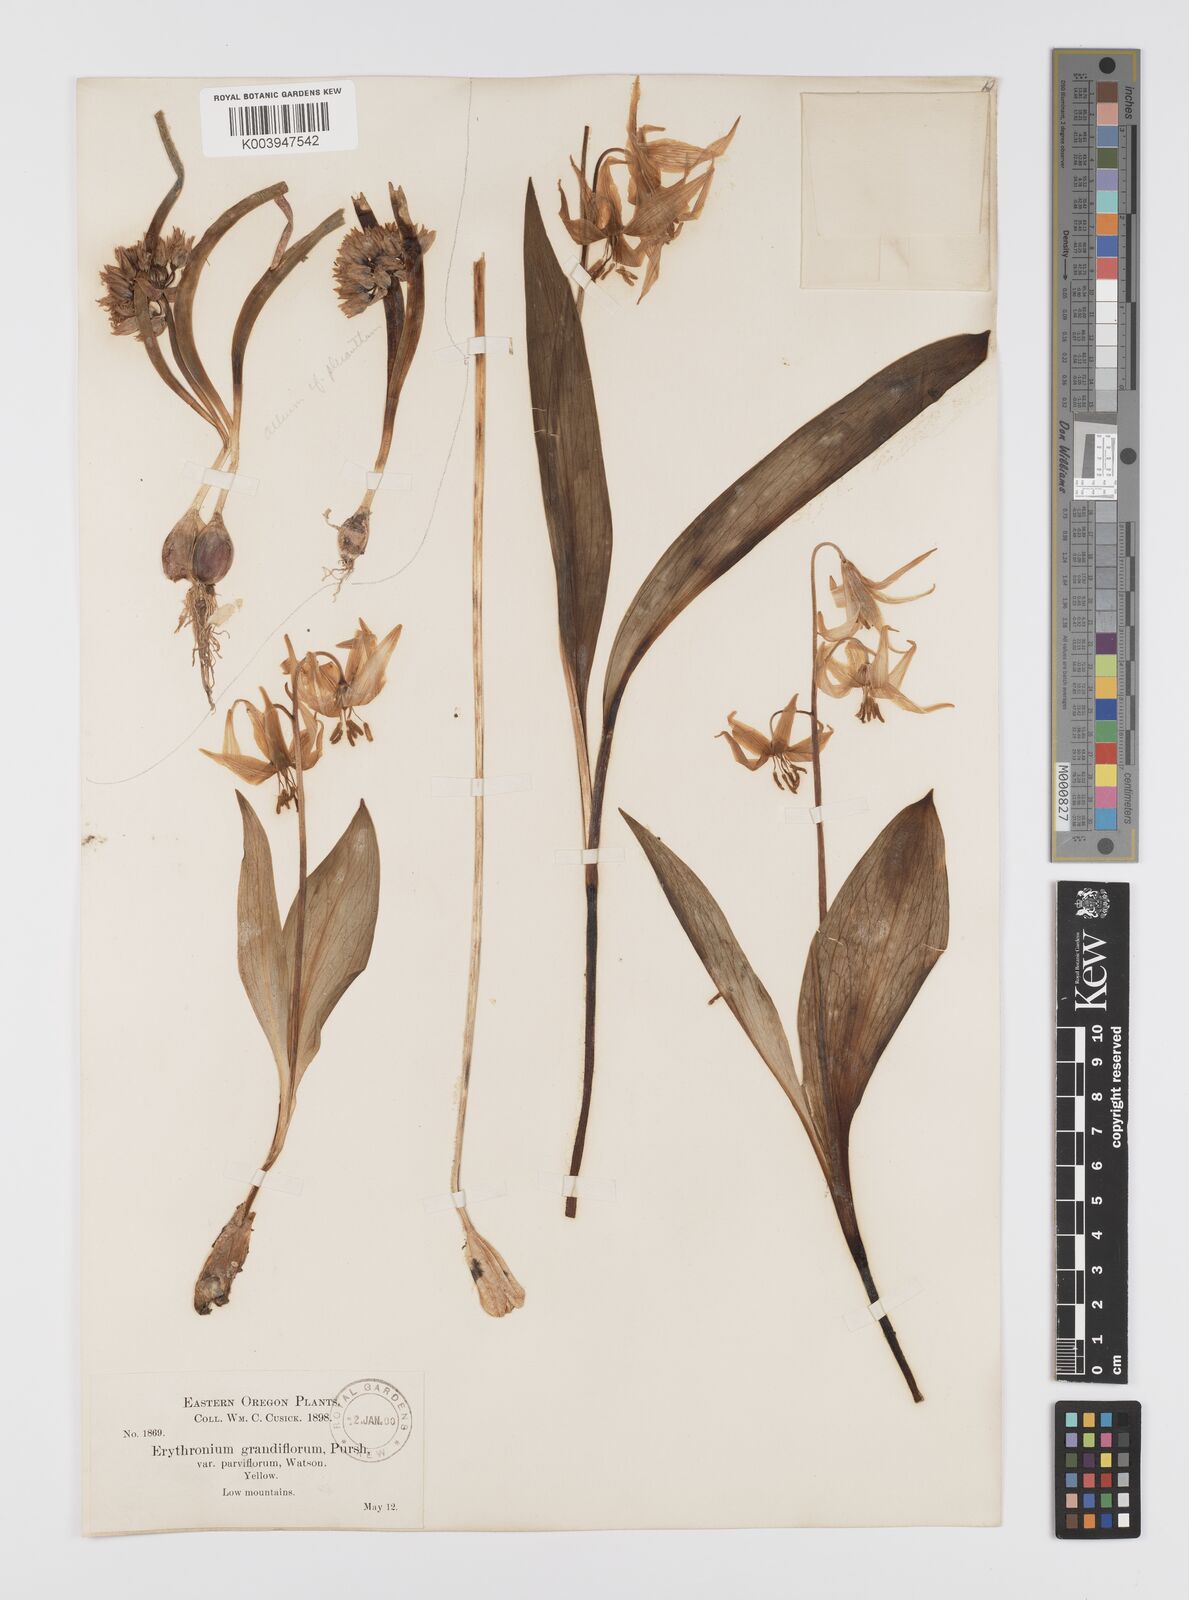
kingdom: Plantae
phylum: Tracheophyta
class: Liliopsida
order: Liliales
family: Liliaceae
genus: Erythronium
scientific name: Erythronium grandiflorum
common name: Avalanche-lily
